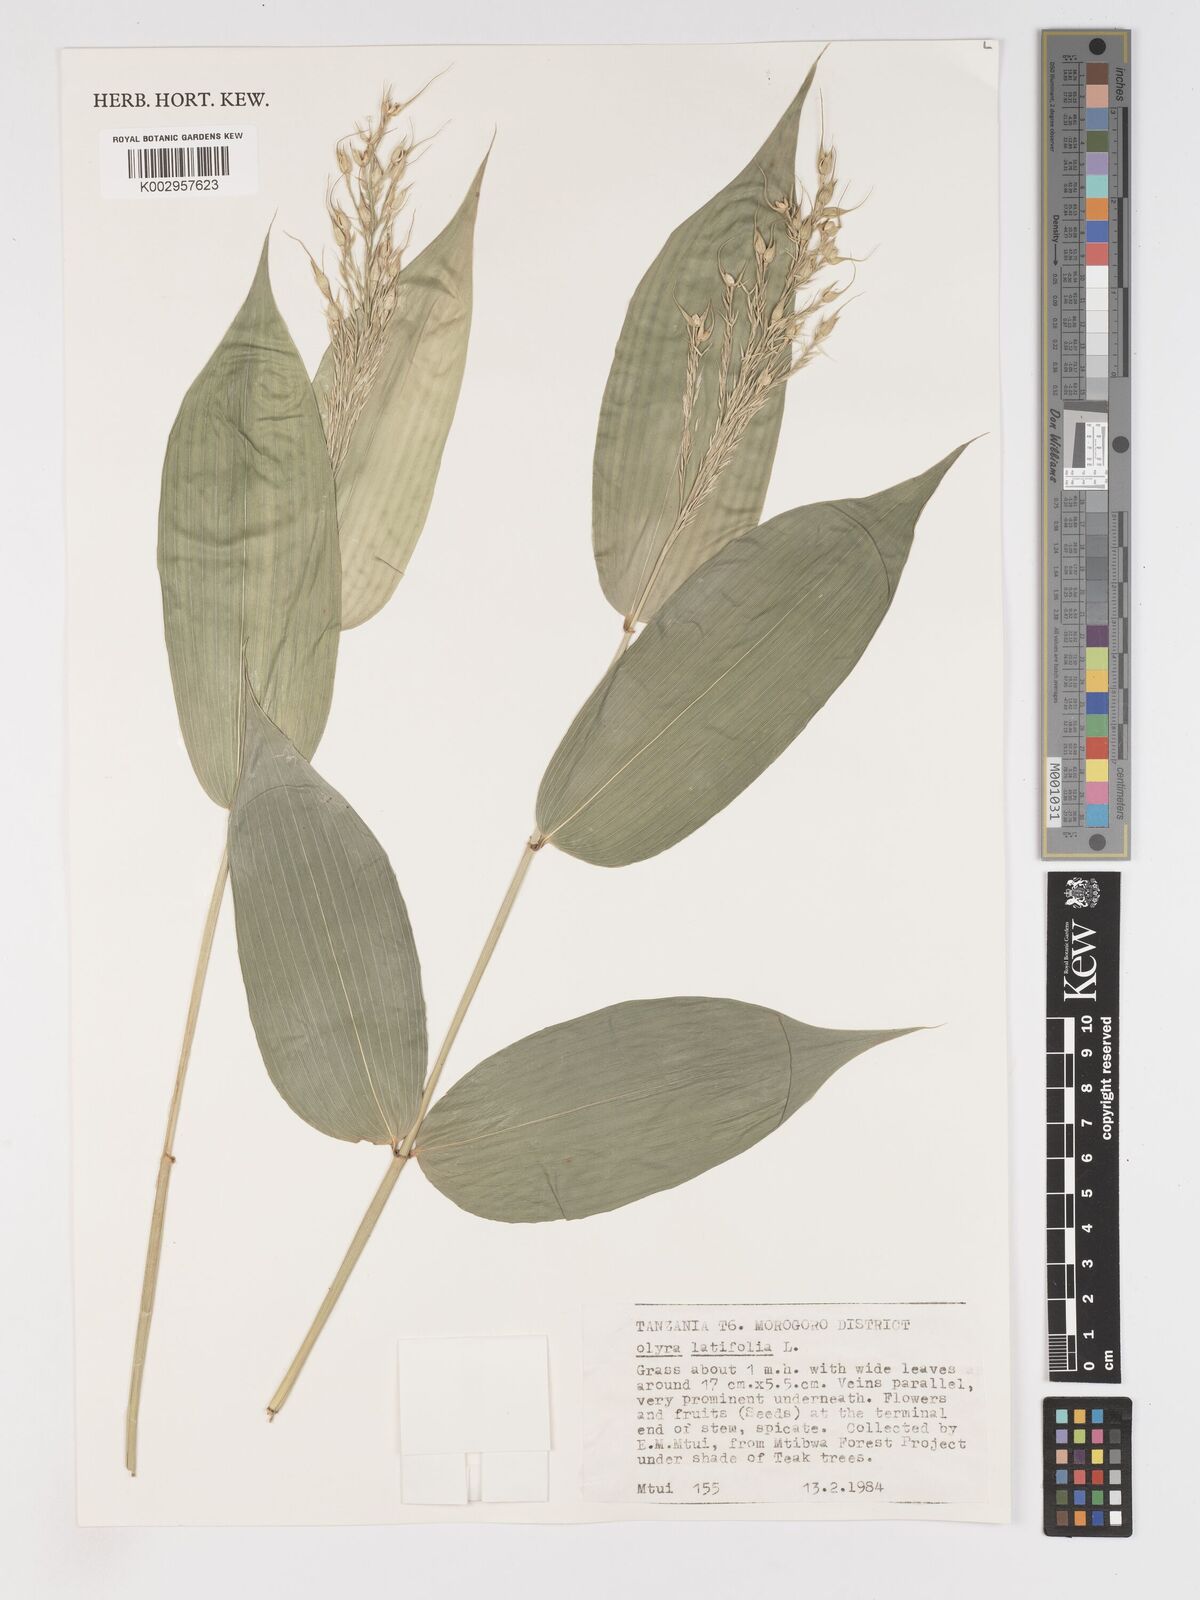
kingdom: Plantae
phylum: Tracheophyta
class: Liliopsida
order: Poales
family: Poaceae
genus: Olyra
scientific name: Olyra latifolia
